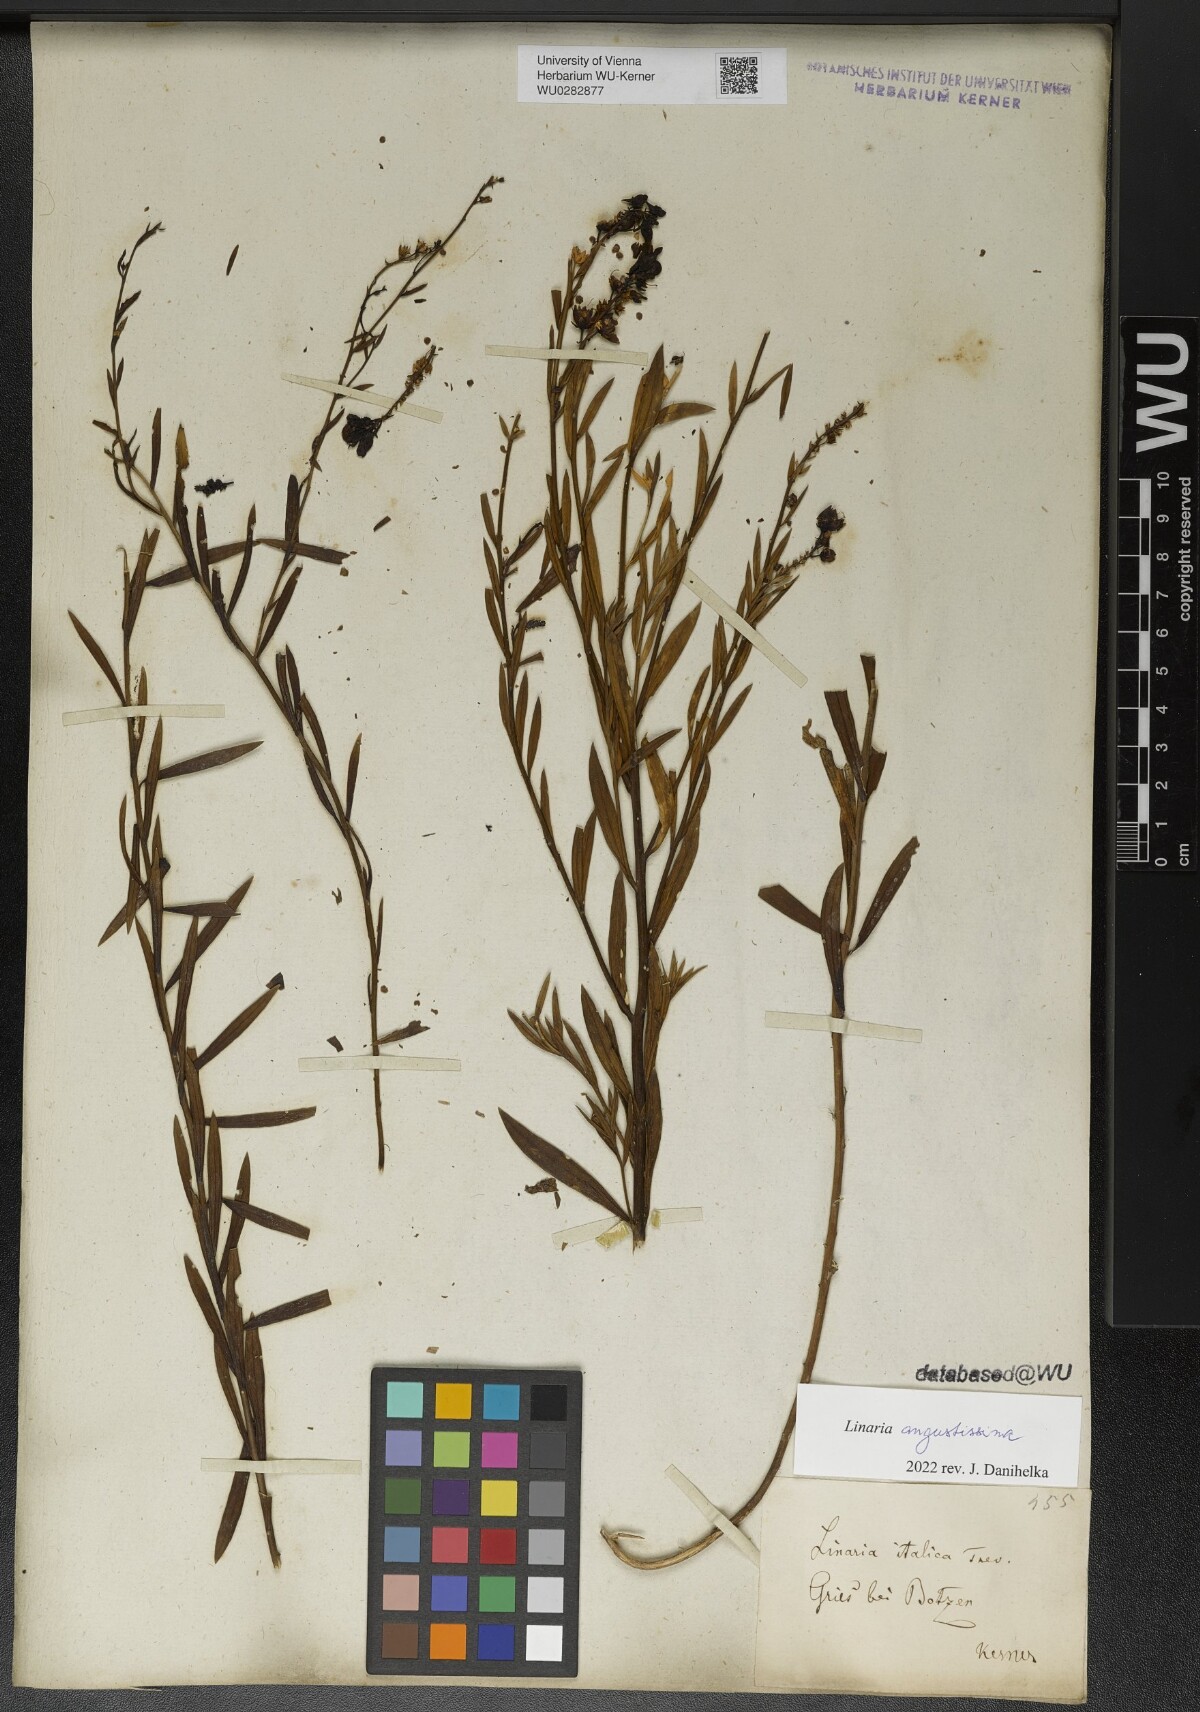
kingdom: Plantae
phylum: Tracheophyta
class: Magnoliopsida
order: Lamiales
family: Plantaginaceae
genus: Linaria
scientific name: Linaria angustissima
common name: Italian toadflax
